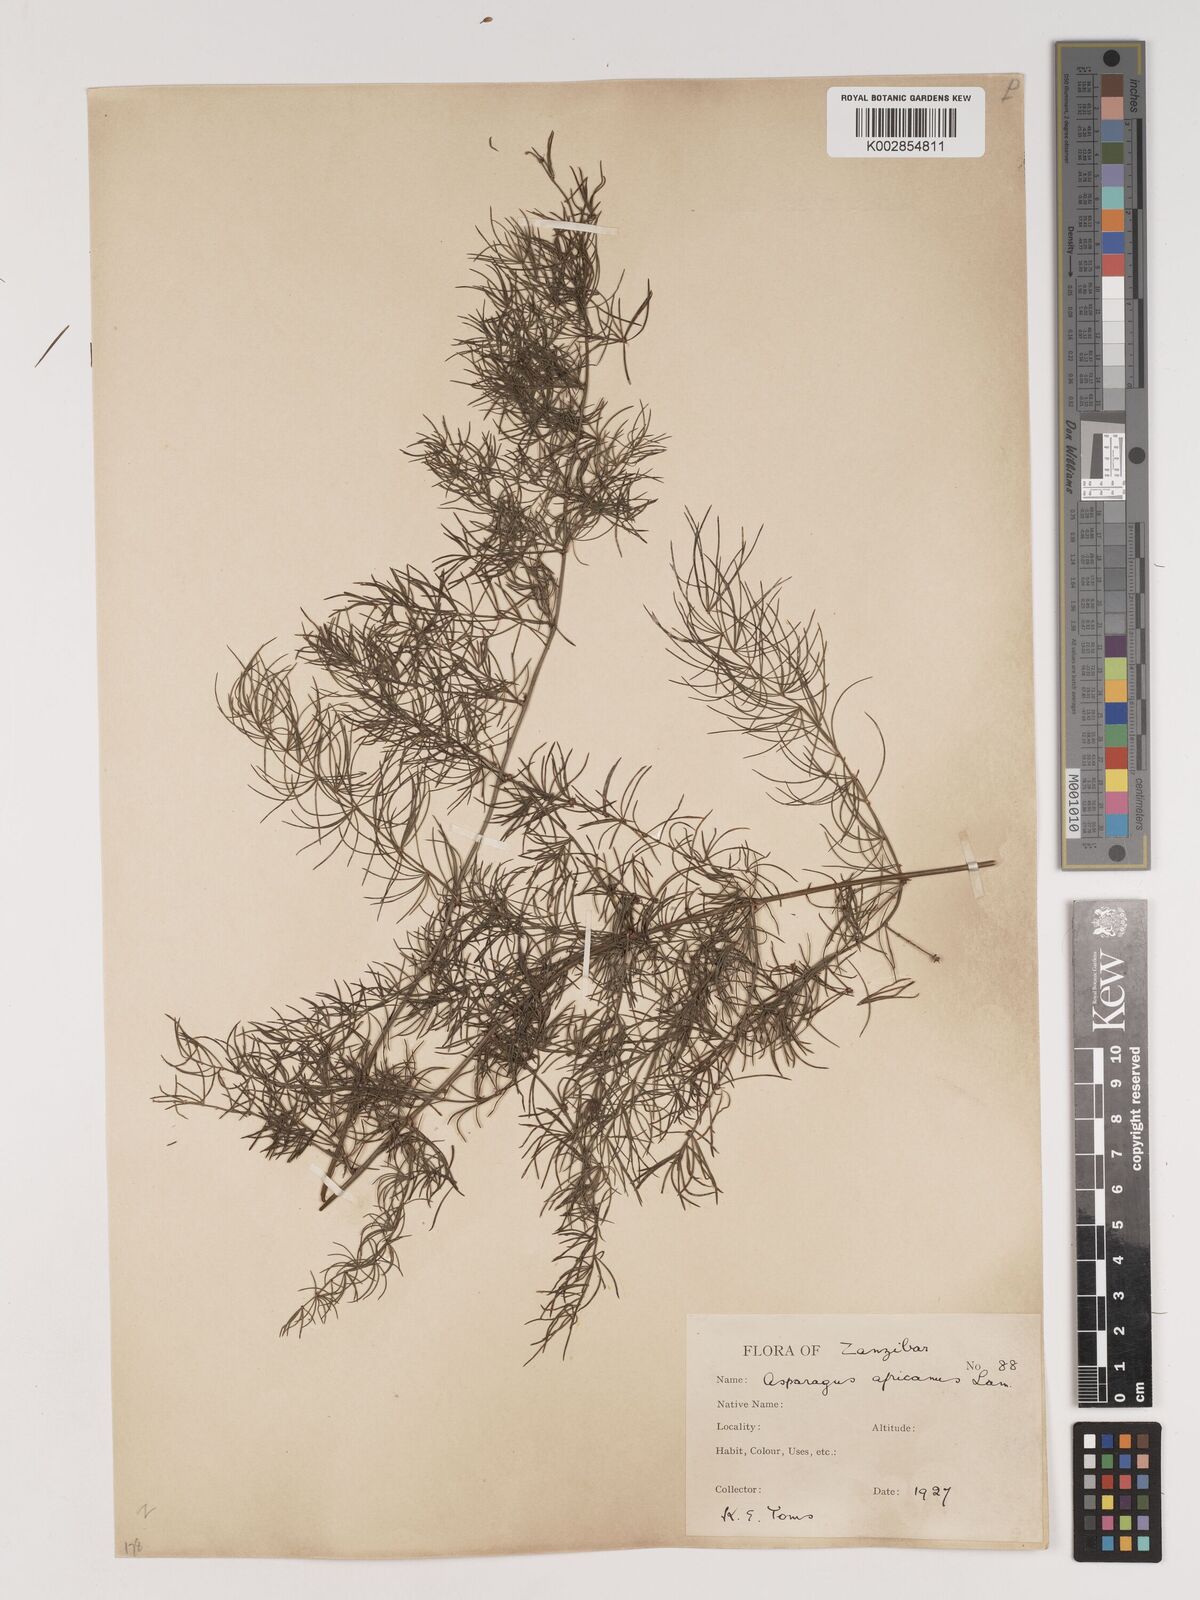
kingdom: Plantae
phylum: Tracheophyta
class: Liliopsida
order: Asparagales
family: Asparagaceae
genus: Asparagus
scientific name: Asparagus africanus
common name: Asparagus-fern
